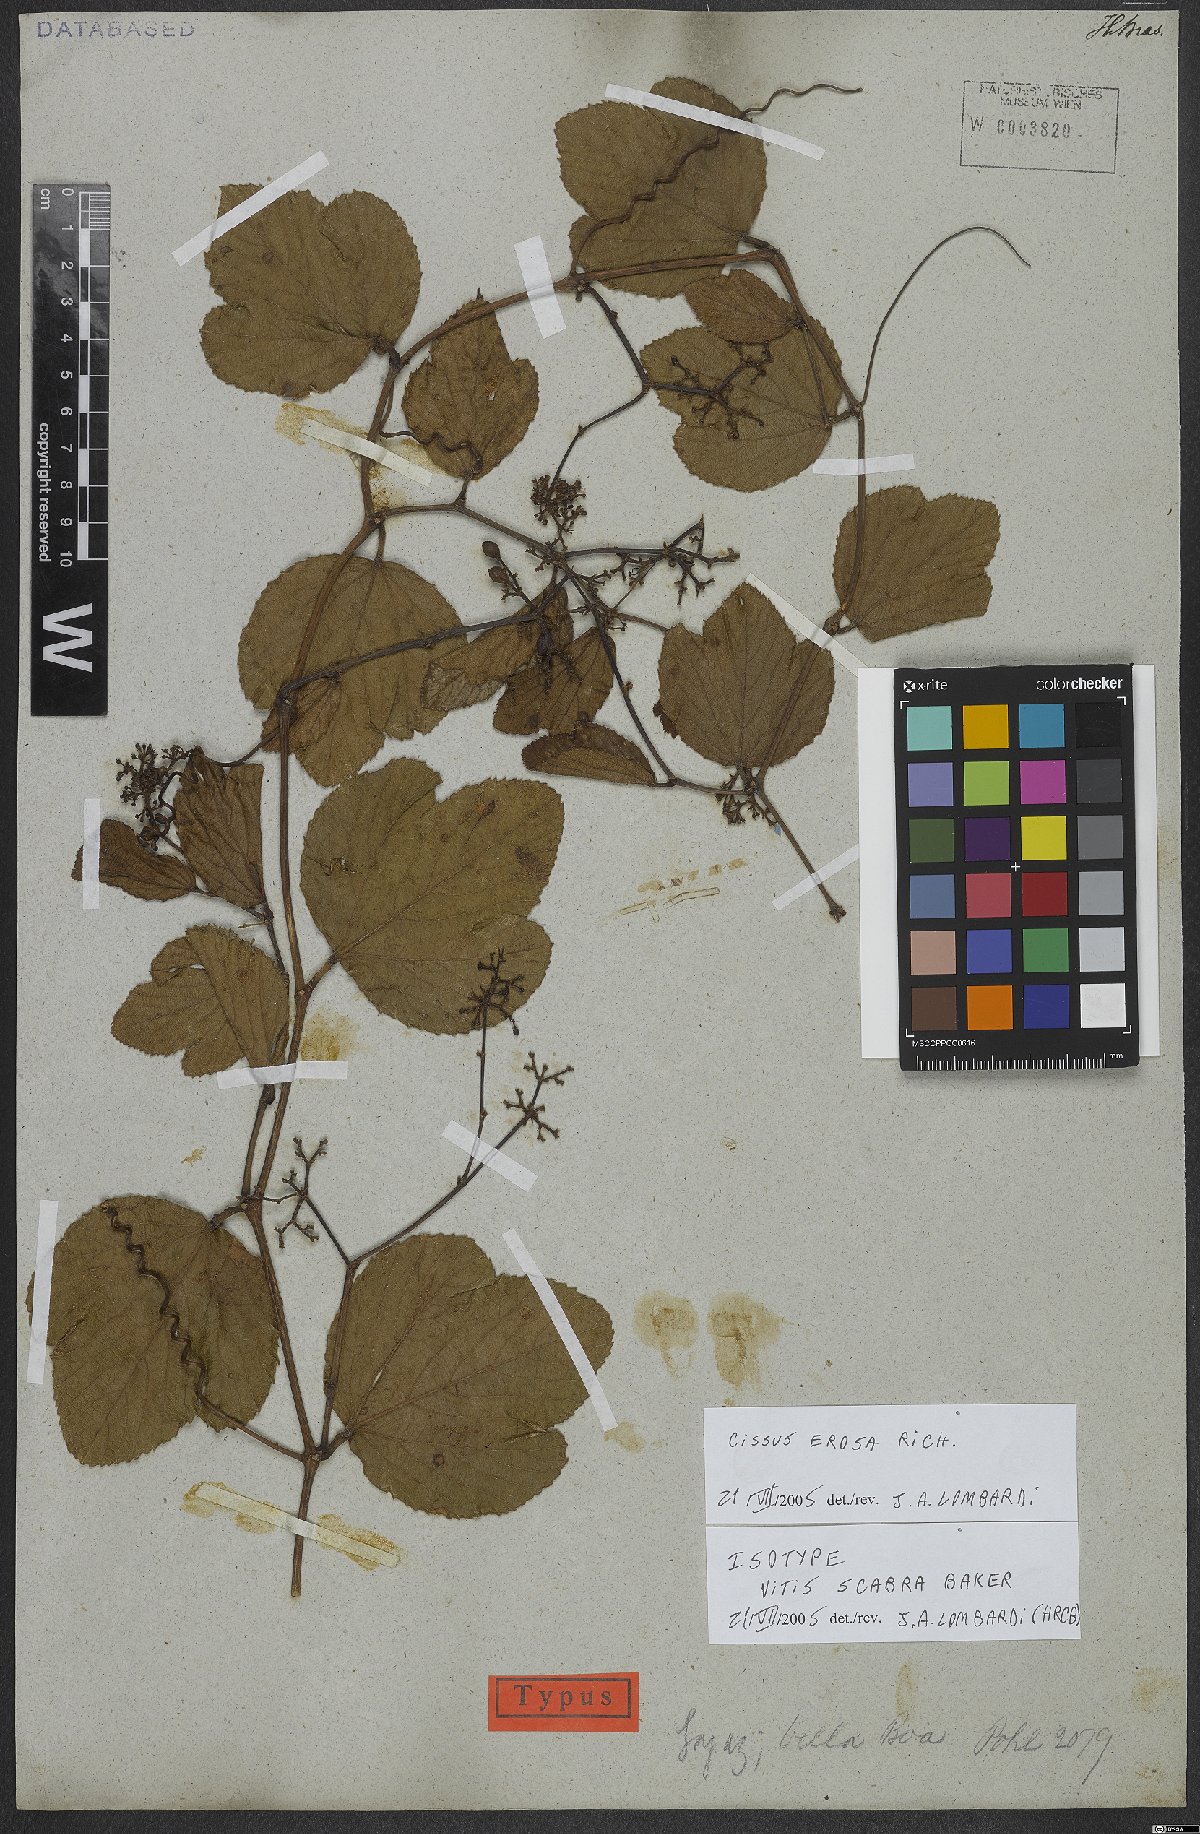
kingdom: Plantae
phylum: Tracheophyta
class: Magnoliopsida
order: Vitales
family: Vitaceae
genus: Cissus
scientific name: Cissus erosa
